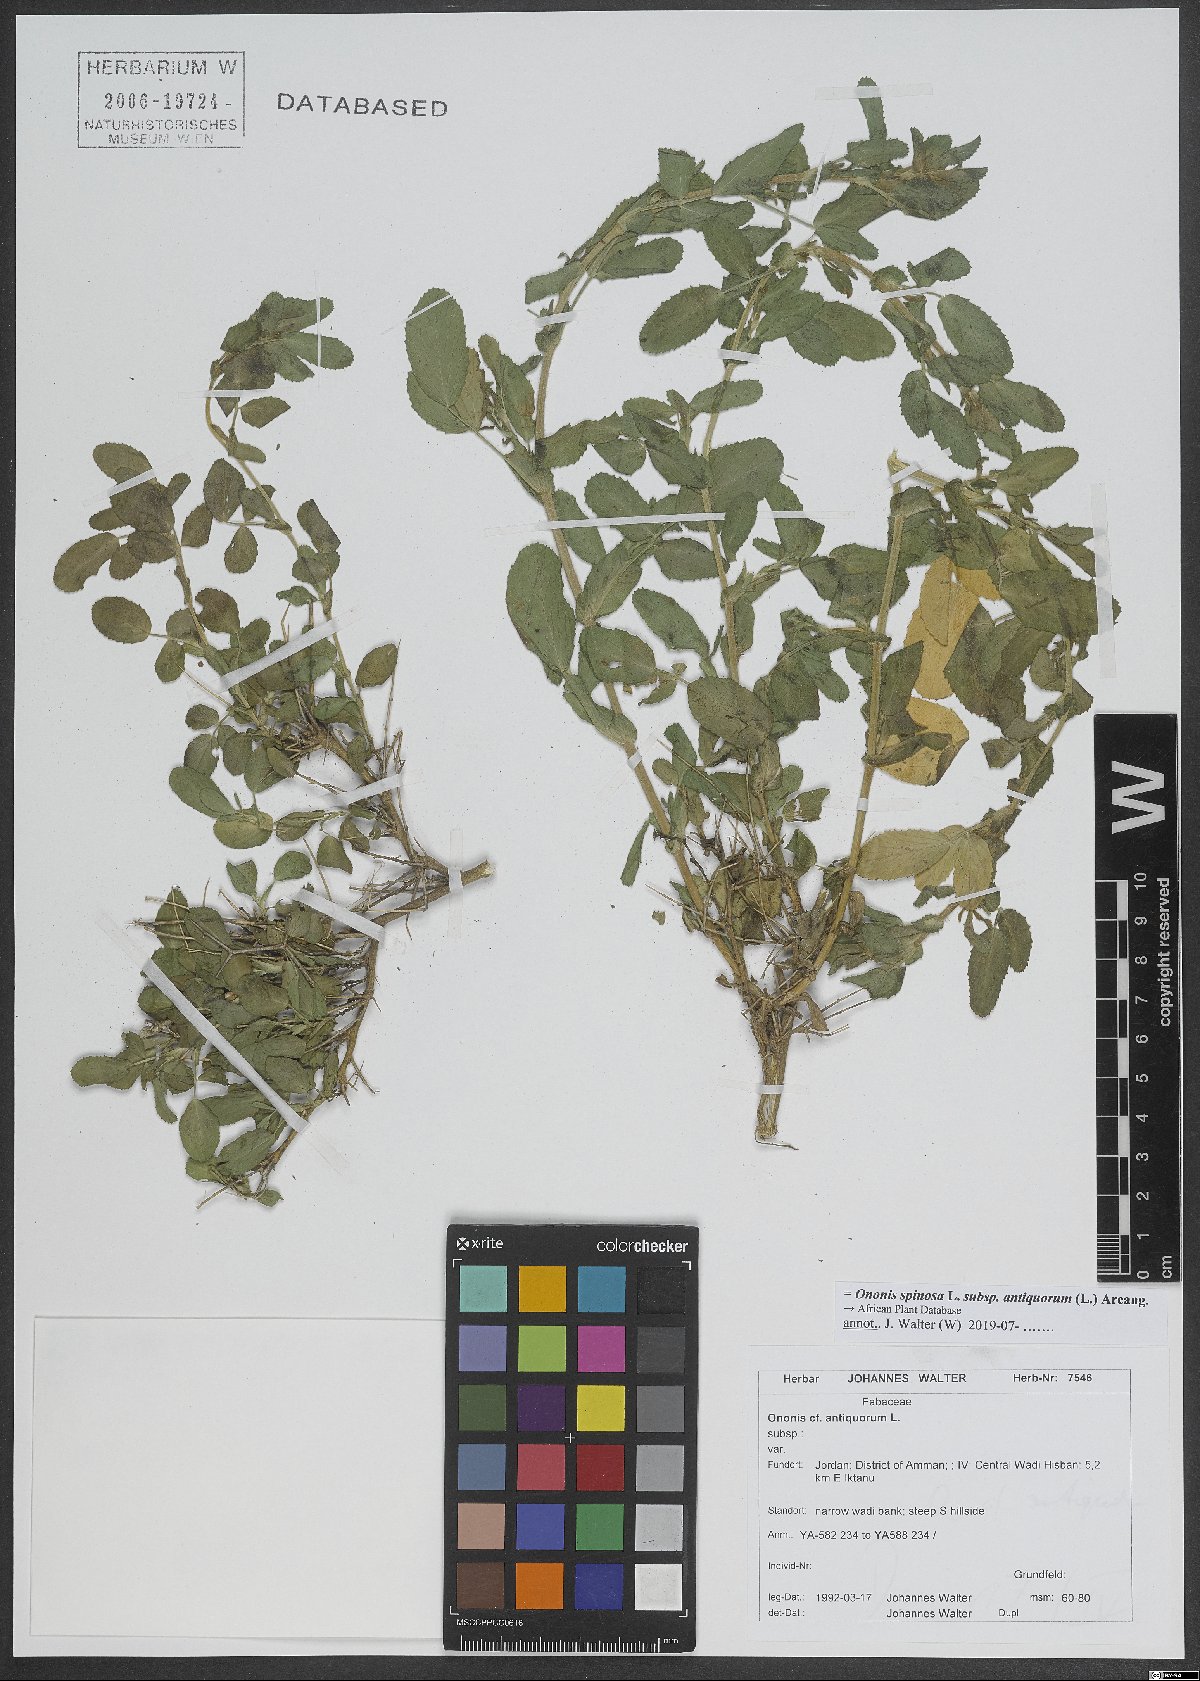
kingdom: Plantae
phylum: Tracheophyta
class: Magnoliopsida
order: Fabales
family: Fabaceae
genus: Ononis
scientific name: Ononis spinosa
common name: Spiny restharrow
